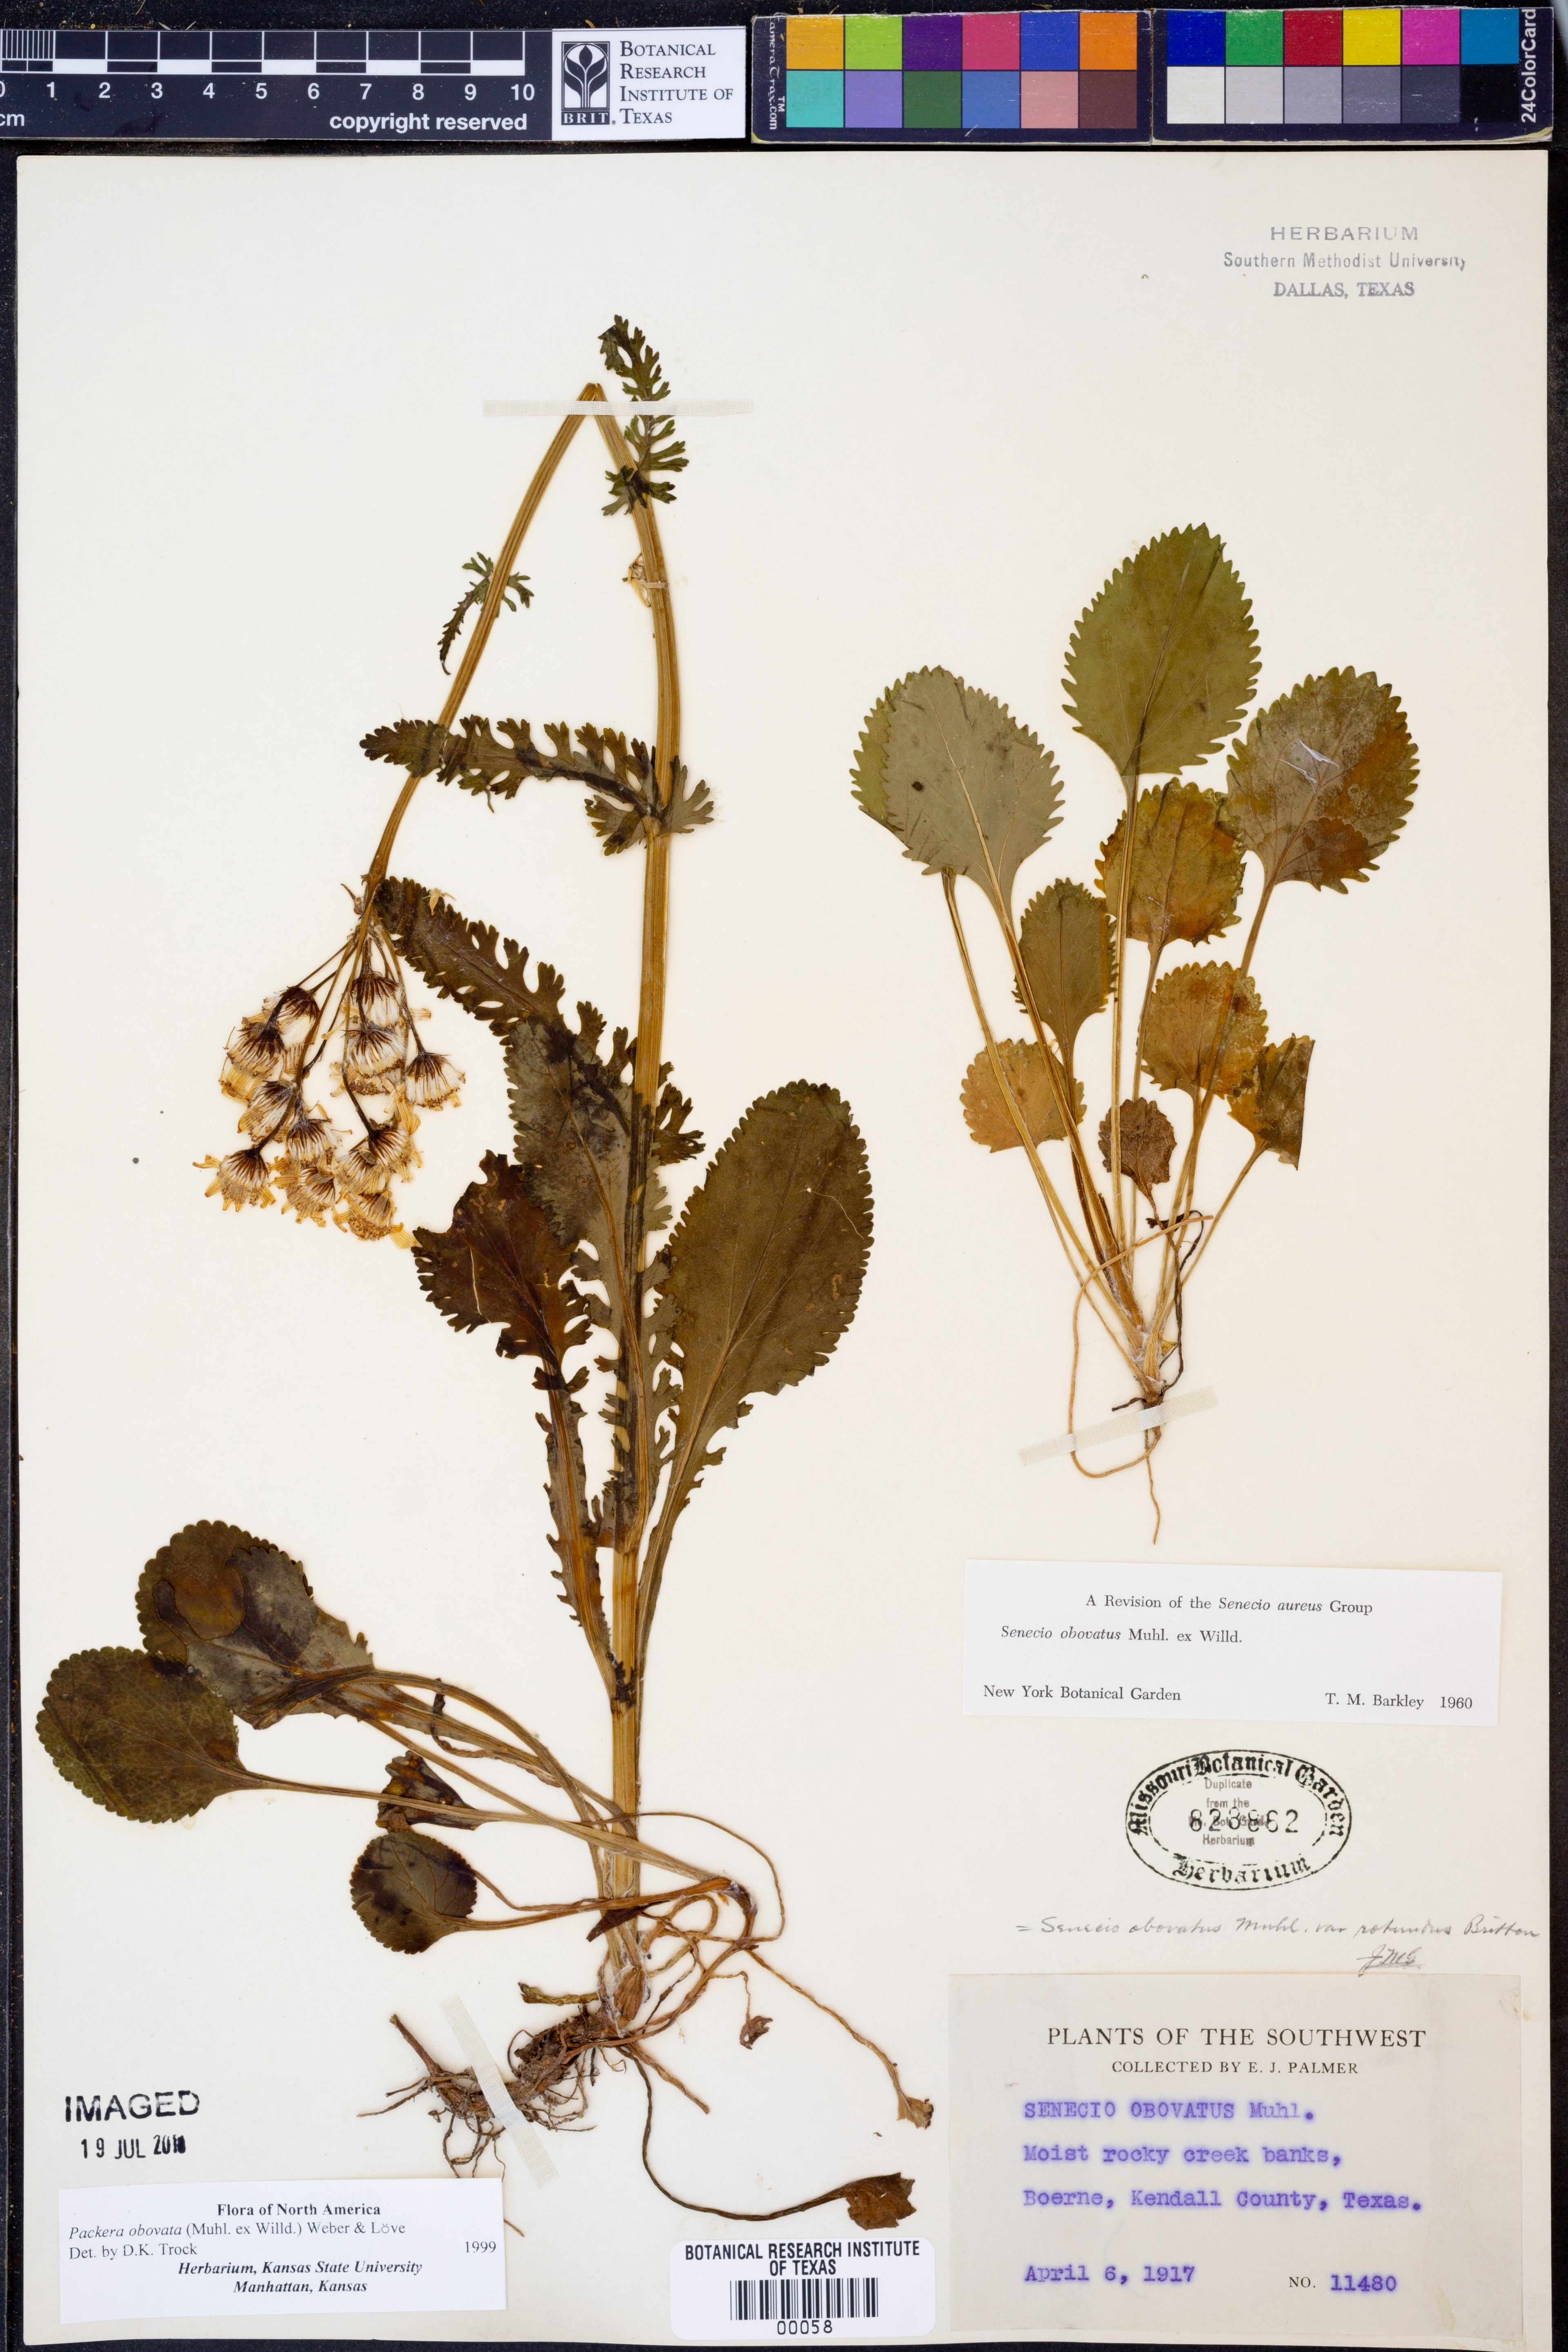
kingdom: Plantae
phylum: Tracheophyta
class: Magnoliopsida
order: Asterales
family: Asteraceae
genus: Packera
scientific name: Packera obovata
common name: Round-leaf ragwort
